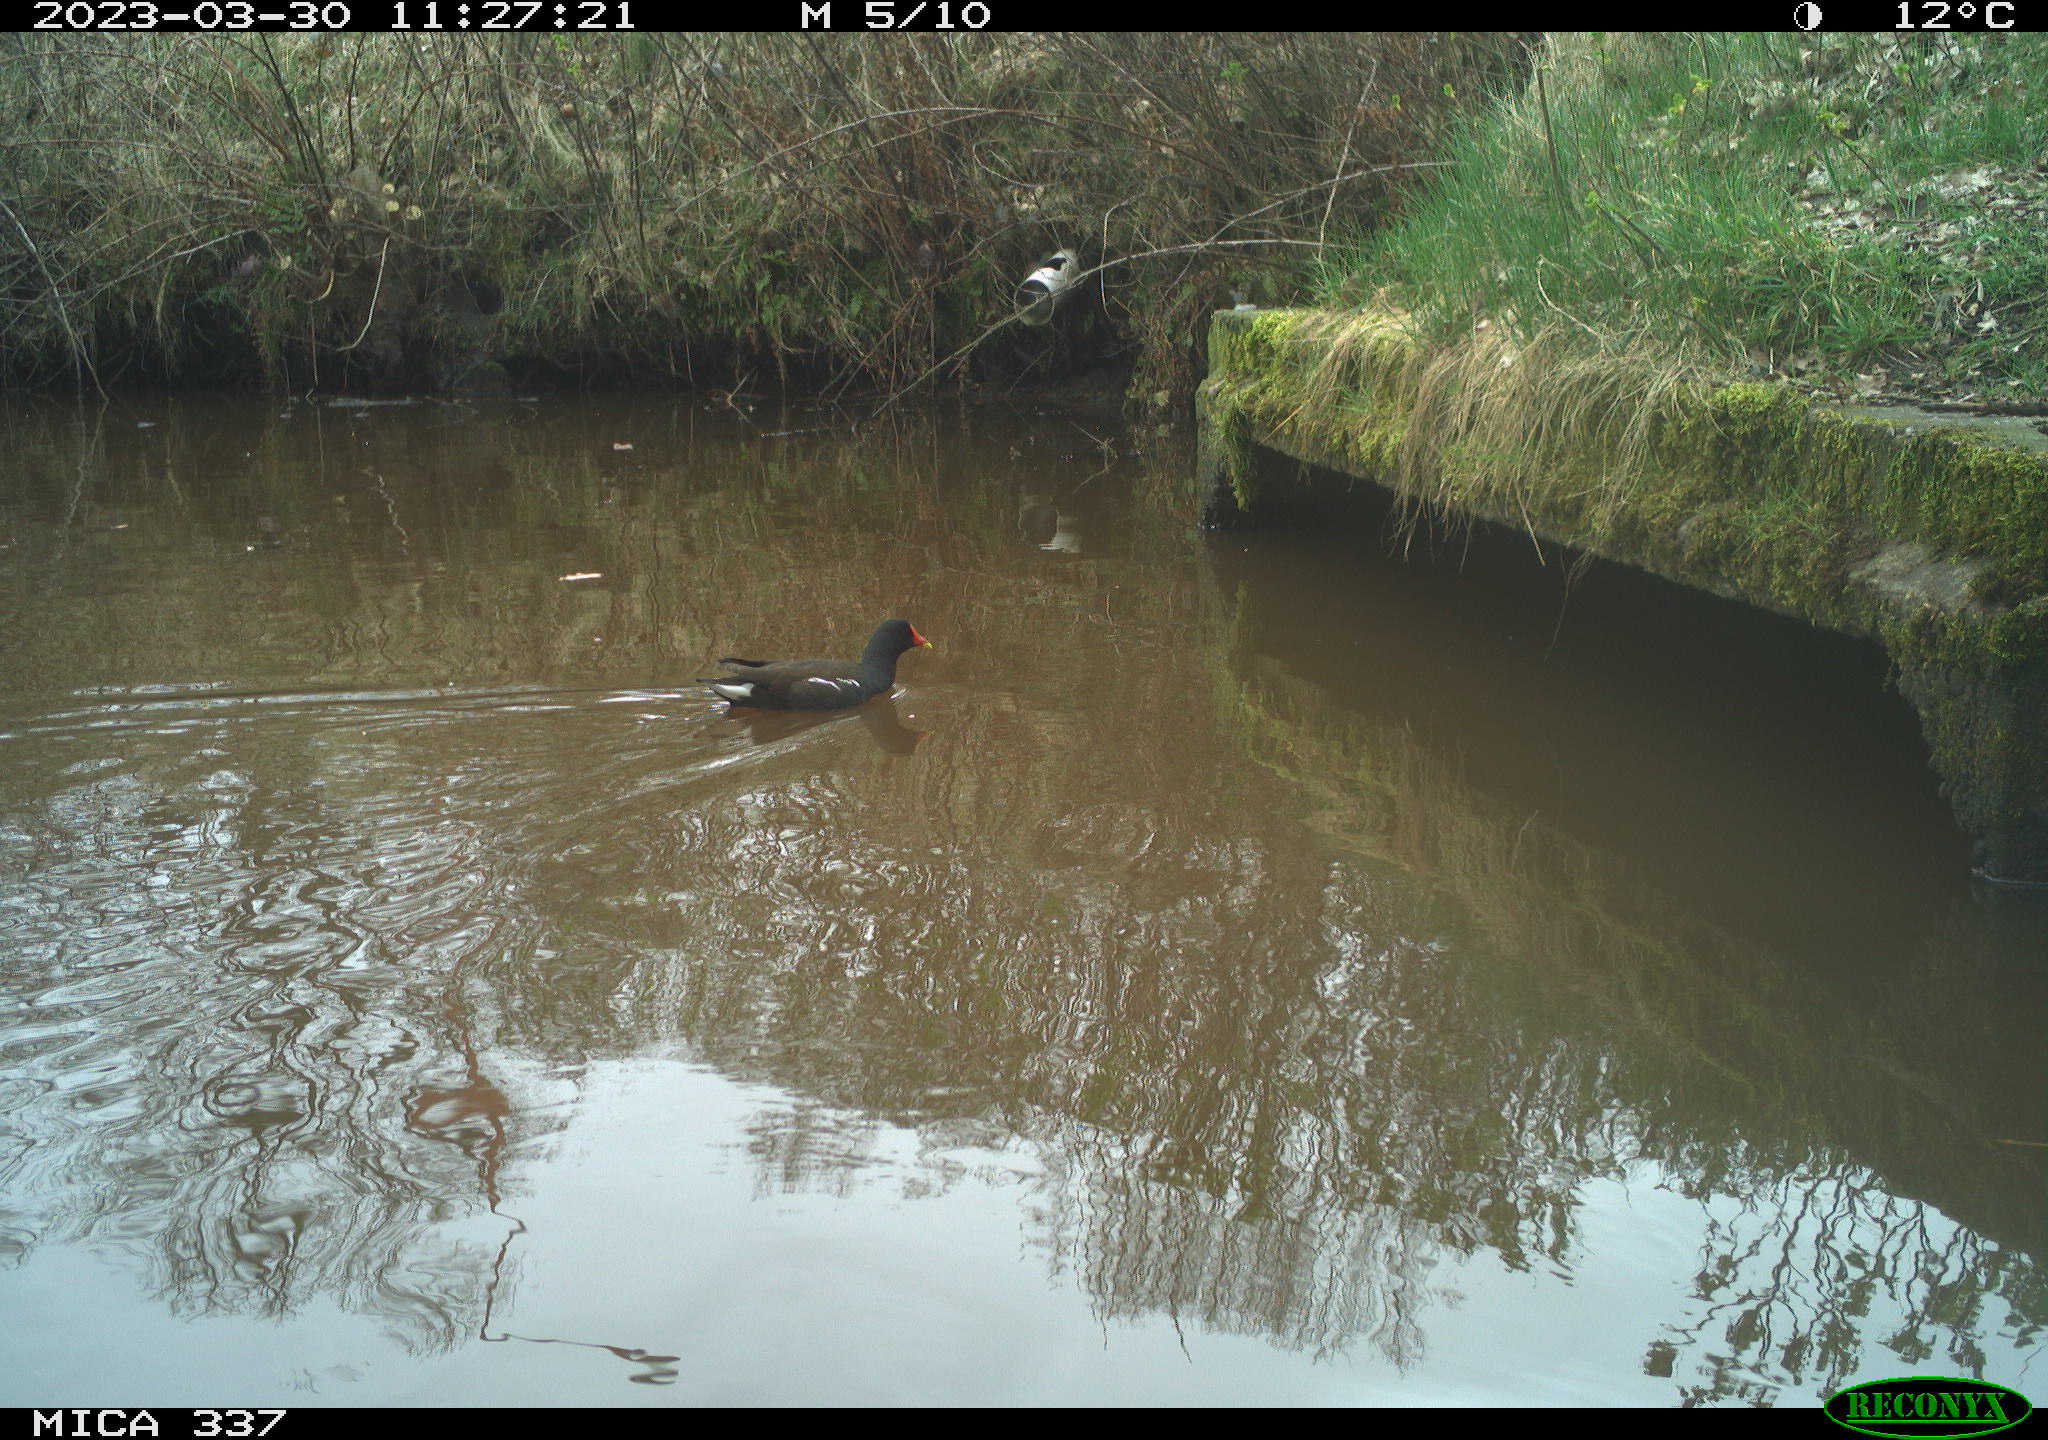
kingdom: Animalia
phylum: Chordata
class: Aves
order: Gruiformes
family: Rallidae
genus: Gallinula
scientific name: Gallinula chloropus
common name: Common moorhen
